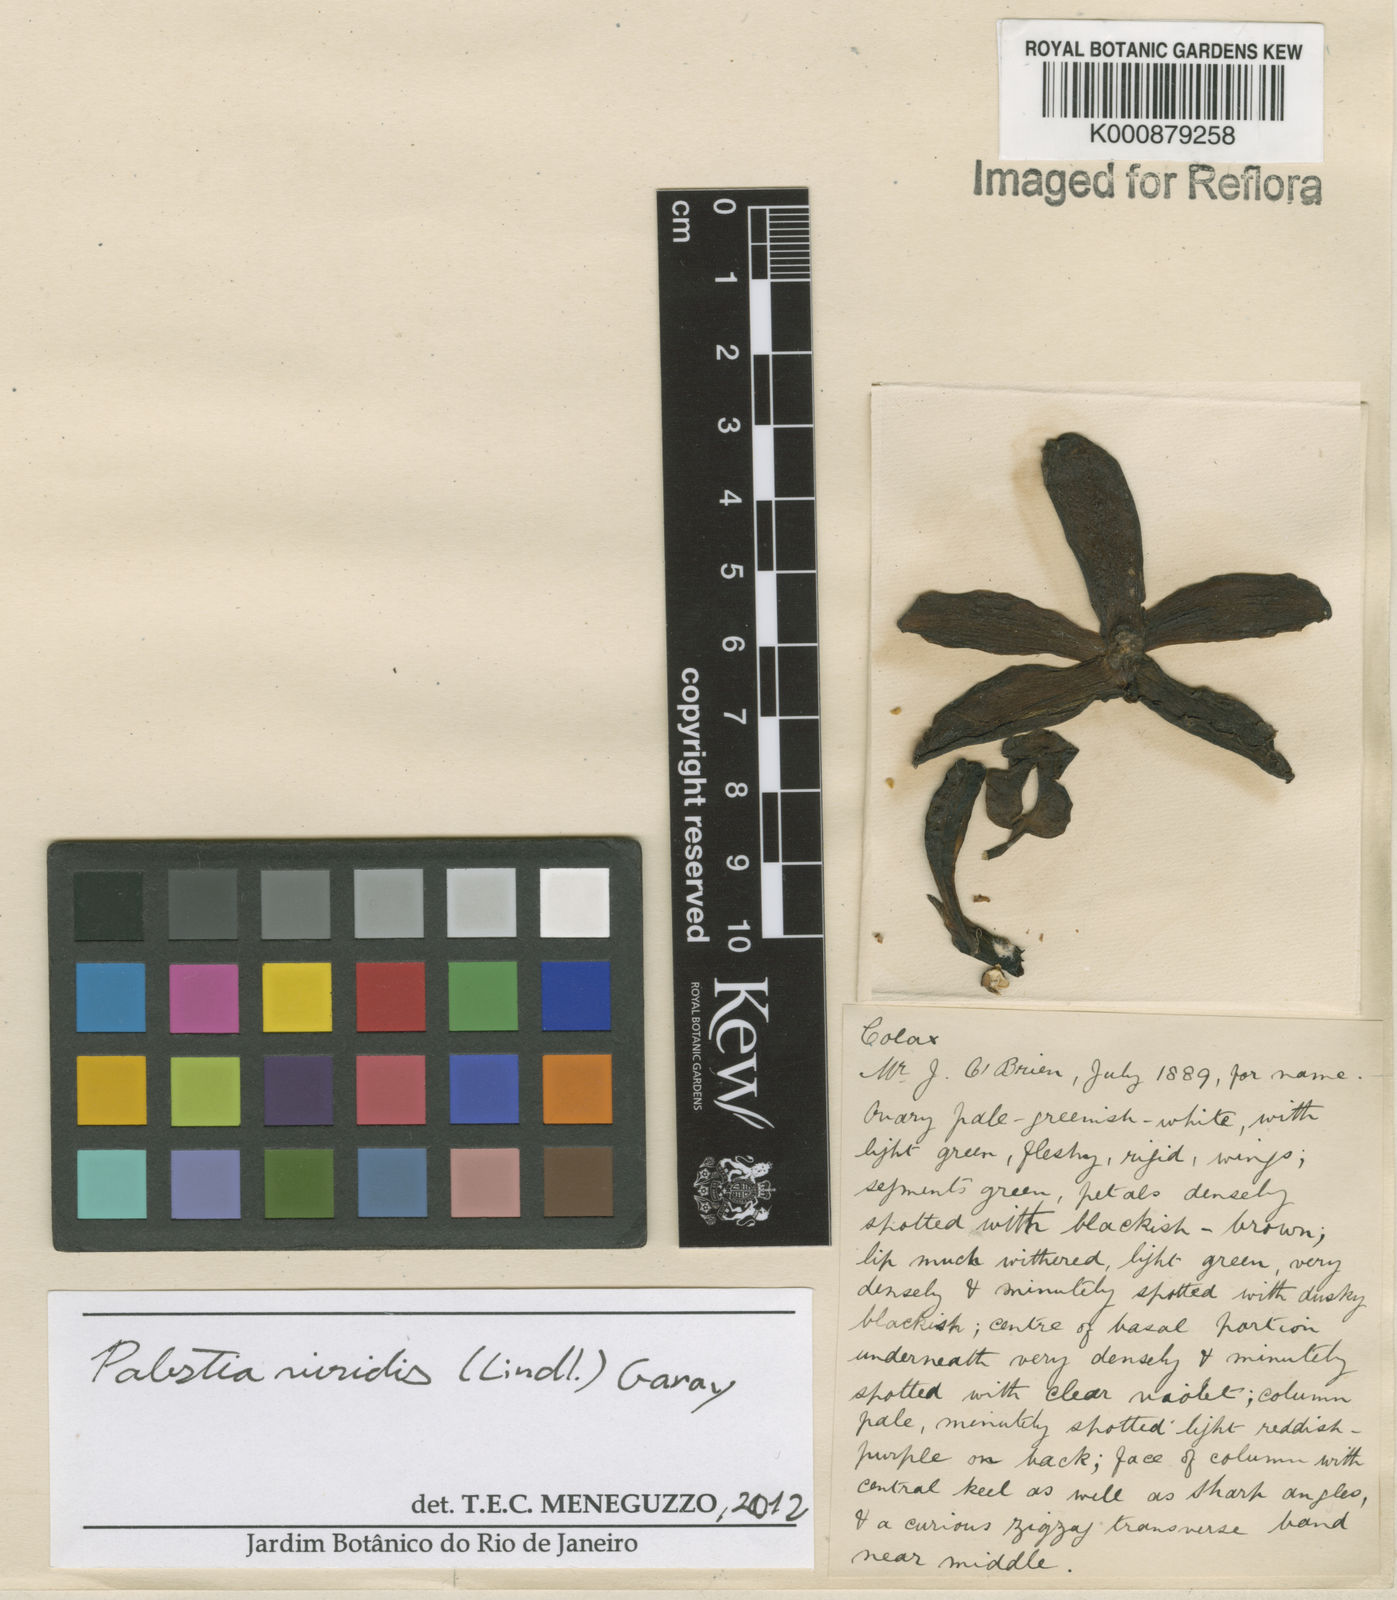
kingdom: Plantae
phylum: Tracheophyta
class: Liliopsida
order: Asparagales
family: Orchidaceae
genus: Pabstia
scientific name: Pabstia viridis
